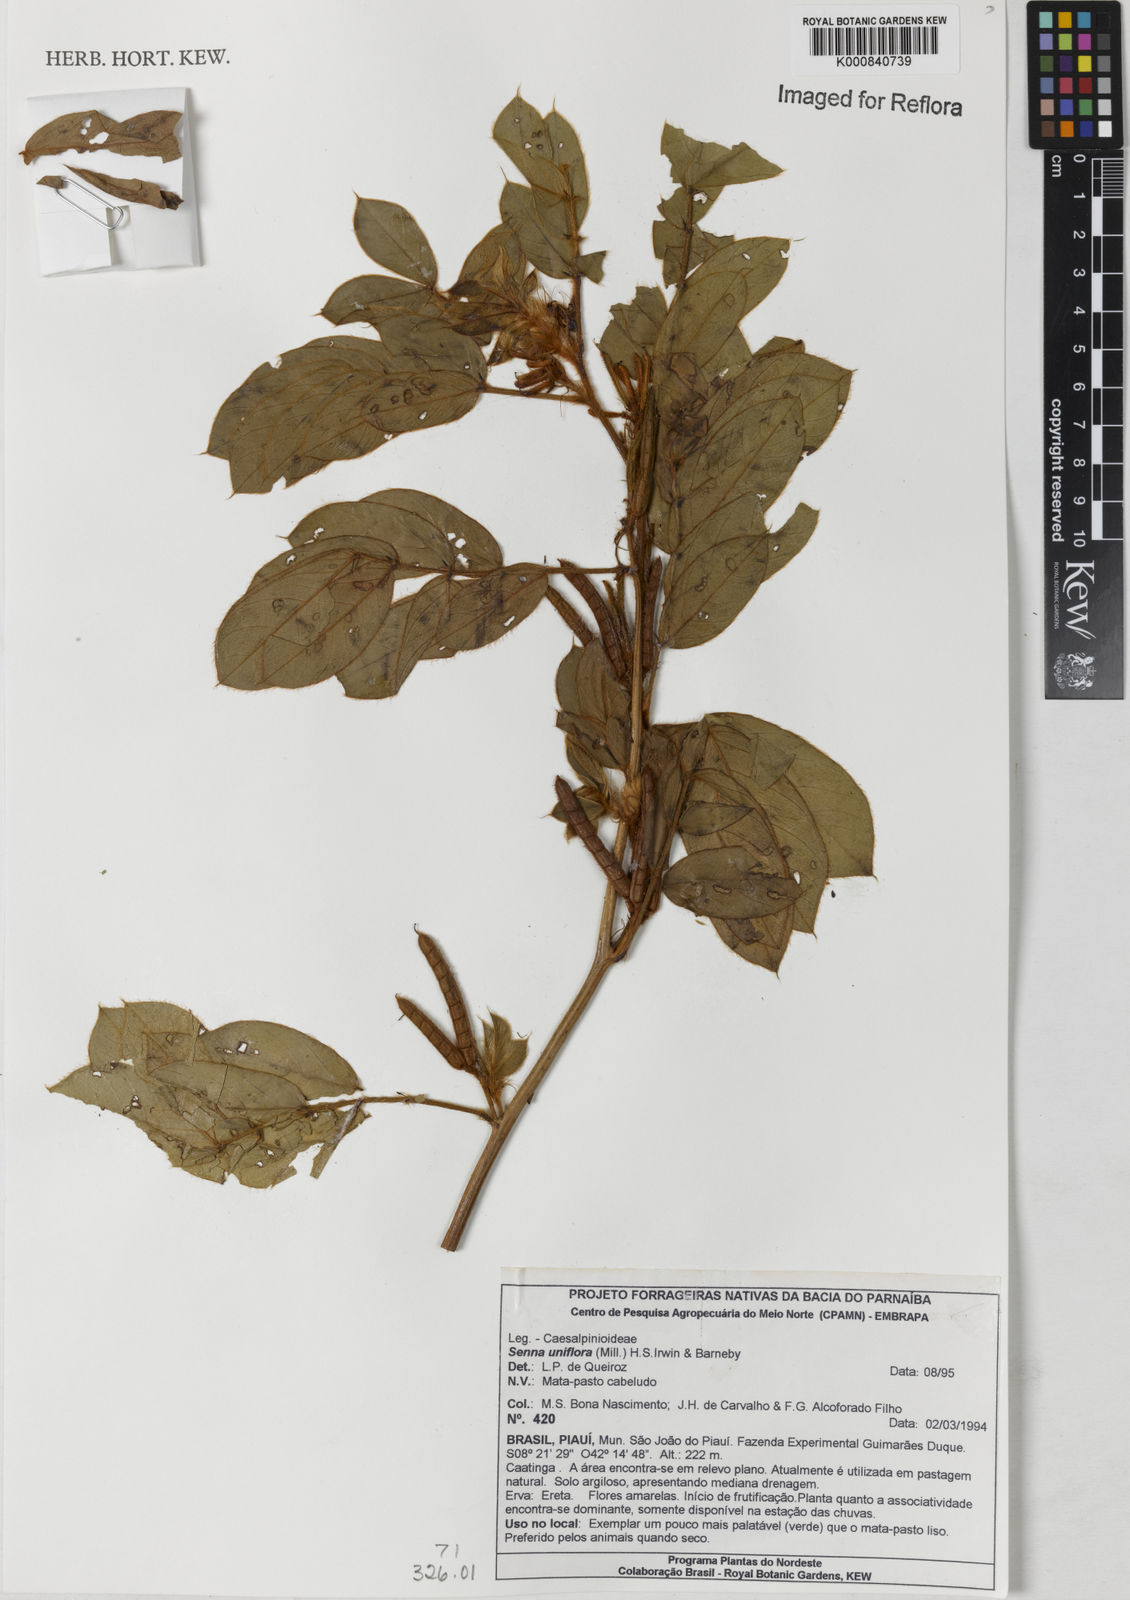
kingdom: Plantae
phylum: Tracheophyta
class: Magnoliopsida
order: Fabales
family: Fabaceae
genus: Senna
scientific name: Senna uniflora
